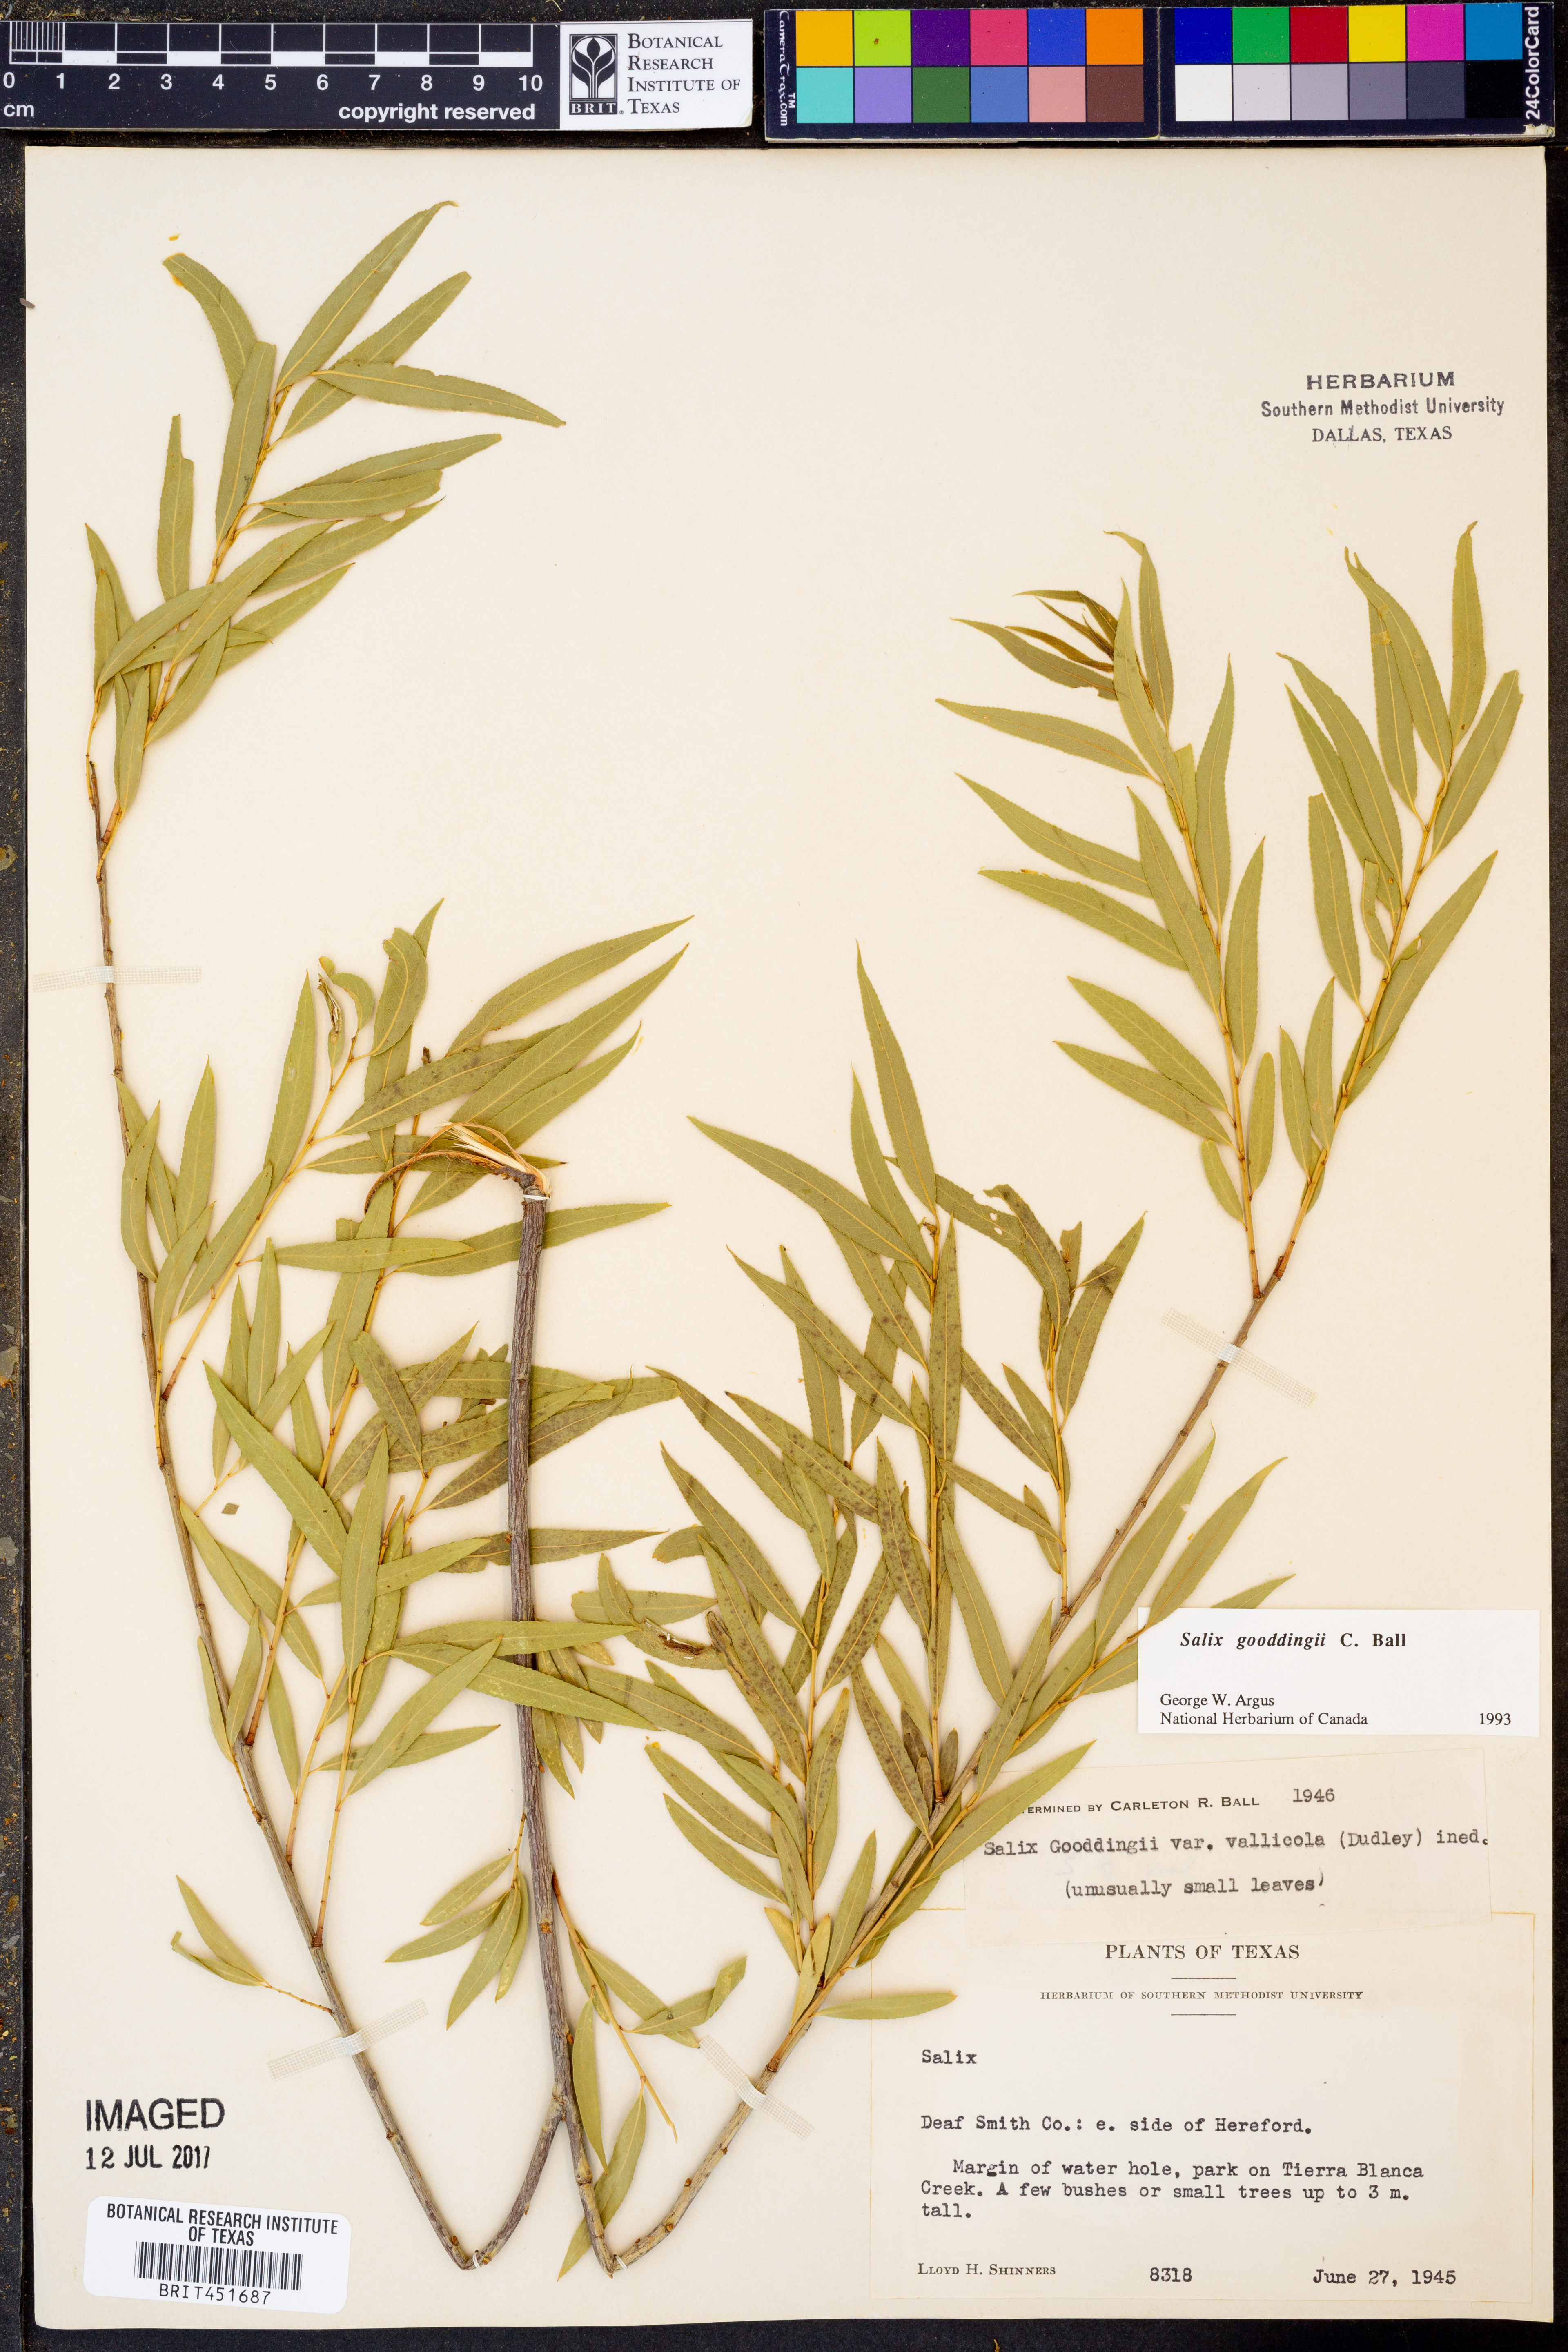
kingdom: Plantae
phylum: Tracheophyta
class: Magnoliopsida
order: Malpighiales
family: Salicaceae
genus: Salix
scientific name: Salix gooddingii
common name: Goodding's willow
